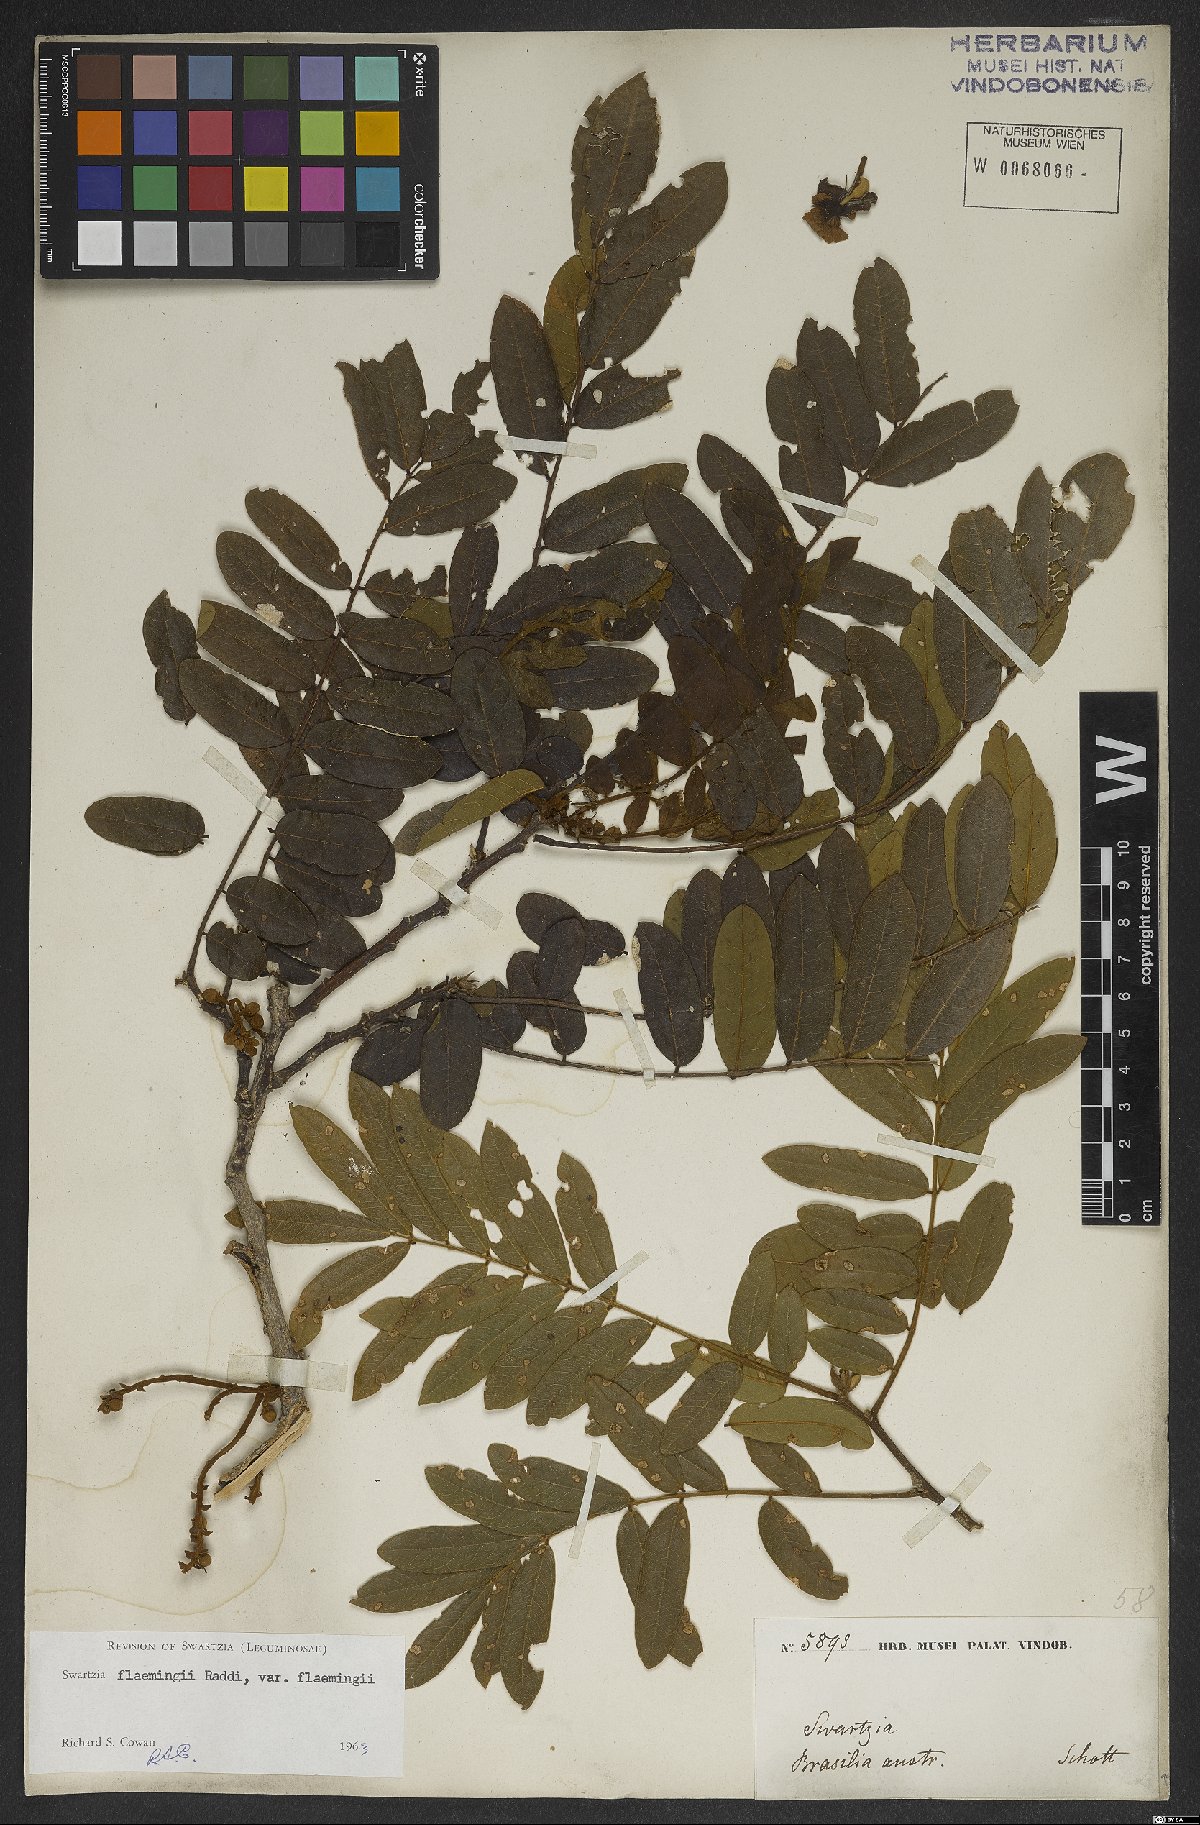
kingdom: Plantae
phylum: Tracheophyta
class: Magnoliopsida
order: Fabales
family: Fabaceae
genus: Swartzia
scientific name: Swartzia flaemingii
